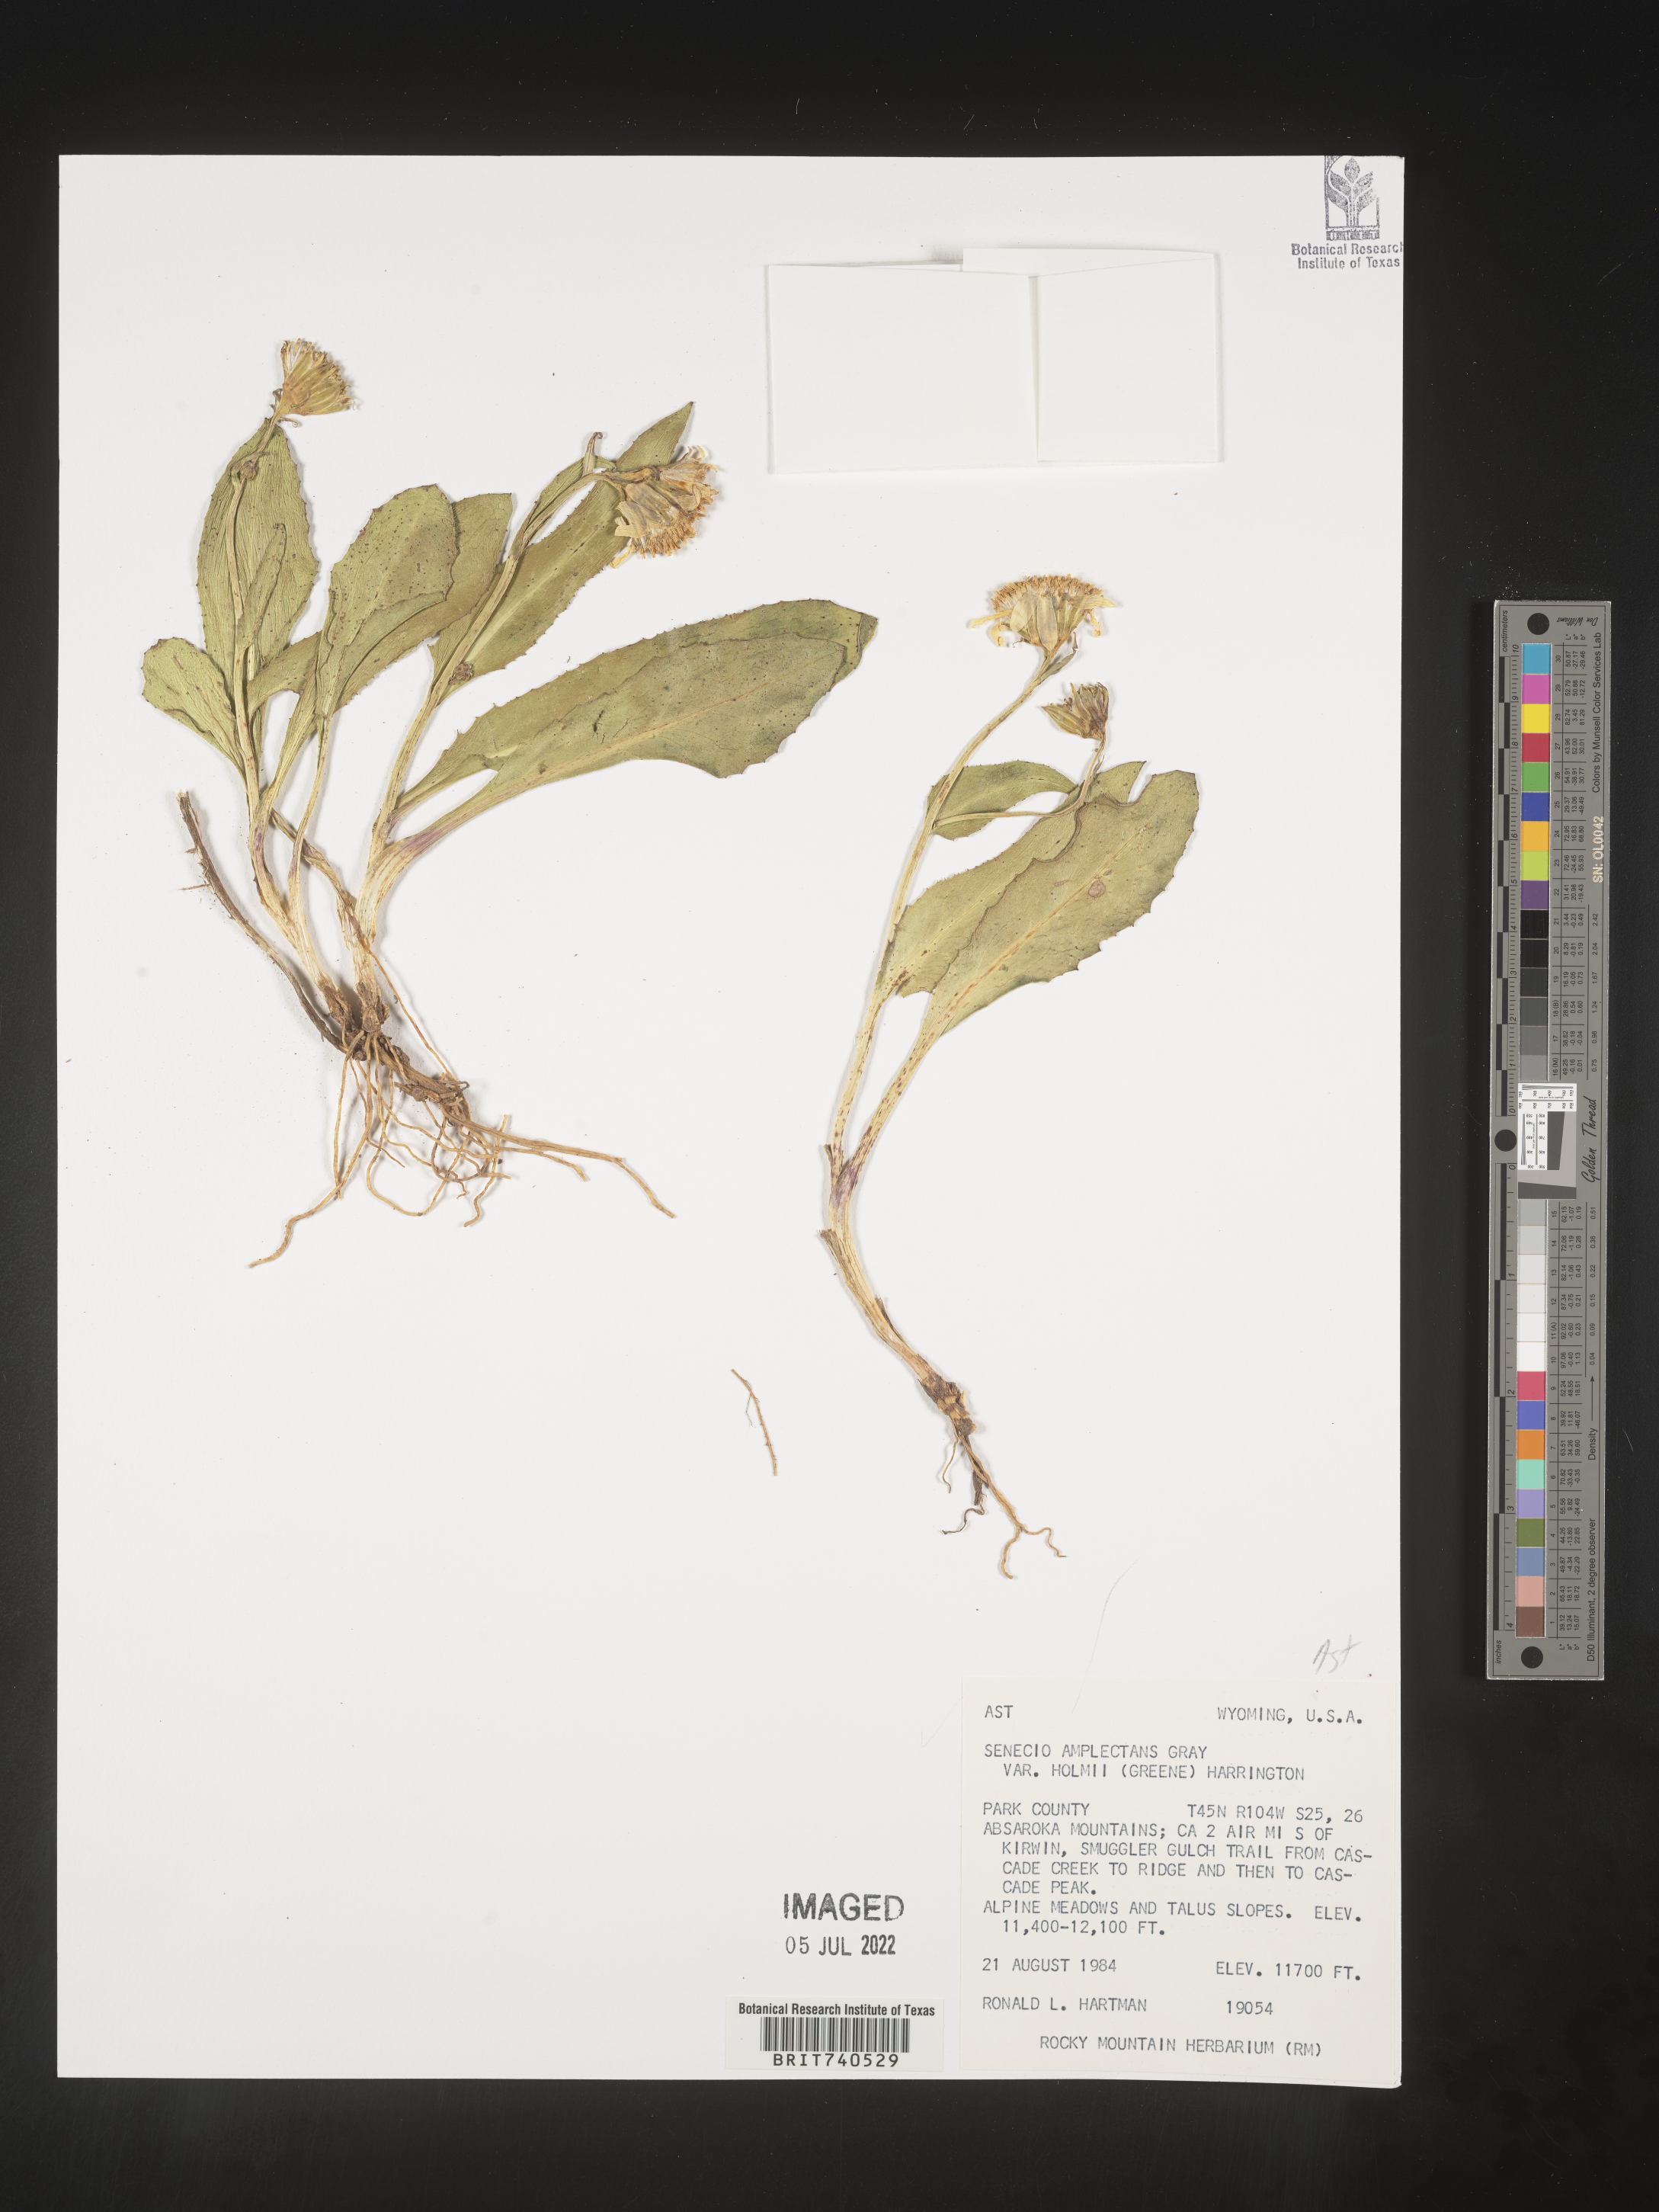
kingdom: Plantae
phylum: Tracheophyta
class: Magnoliopsida
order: Asterales
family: Asteraceae
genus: Senecio
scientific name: Senecio amplectens
